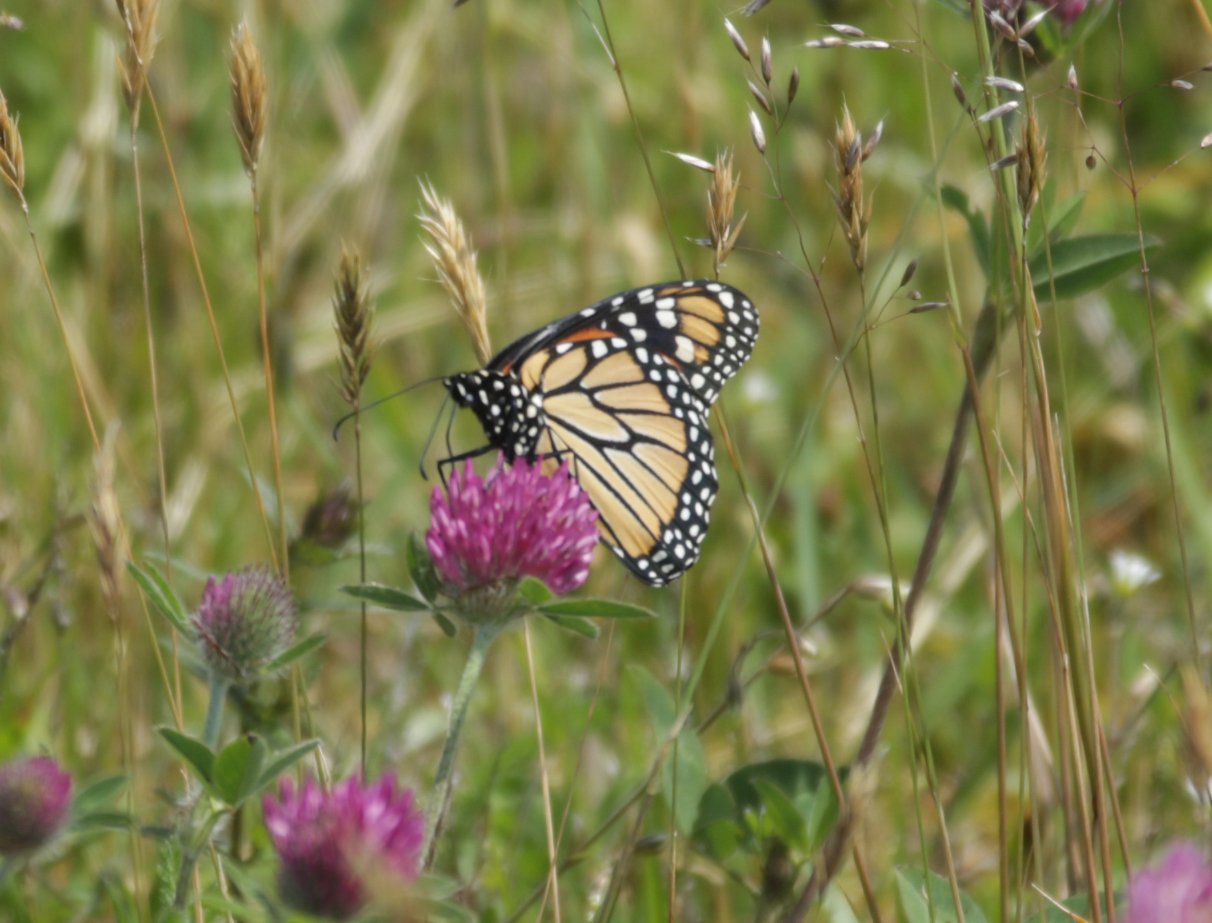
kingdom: Animalia
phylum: Arthropoda
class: Insecta
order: Lepidoptera
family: Nymphalidae
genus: Danaus
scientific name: Danaus plexippus
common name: Monarch
